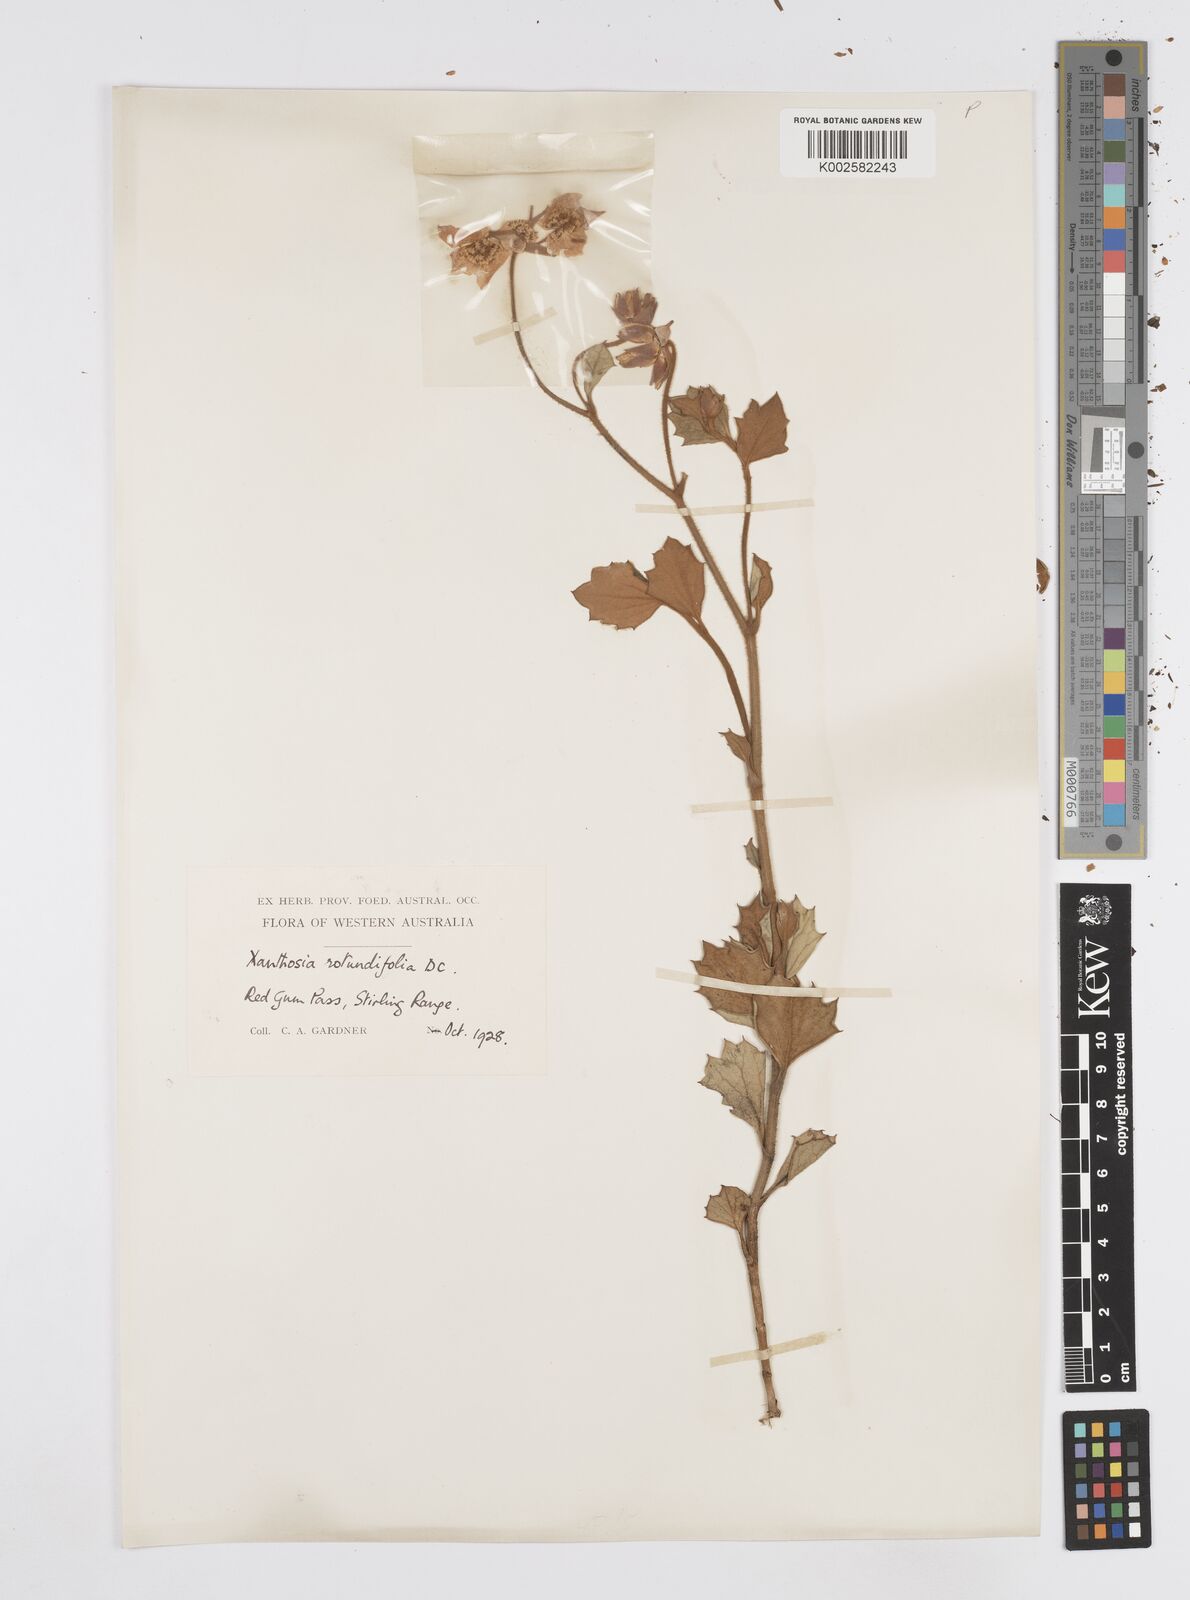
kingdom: Plantae
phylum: Tracheophyta
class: Magnoliopsida
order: Apiales
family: Apiaceae
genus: Xanthosia
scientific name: Xanthosia rotundifolia
